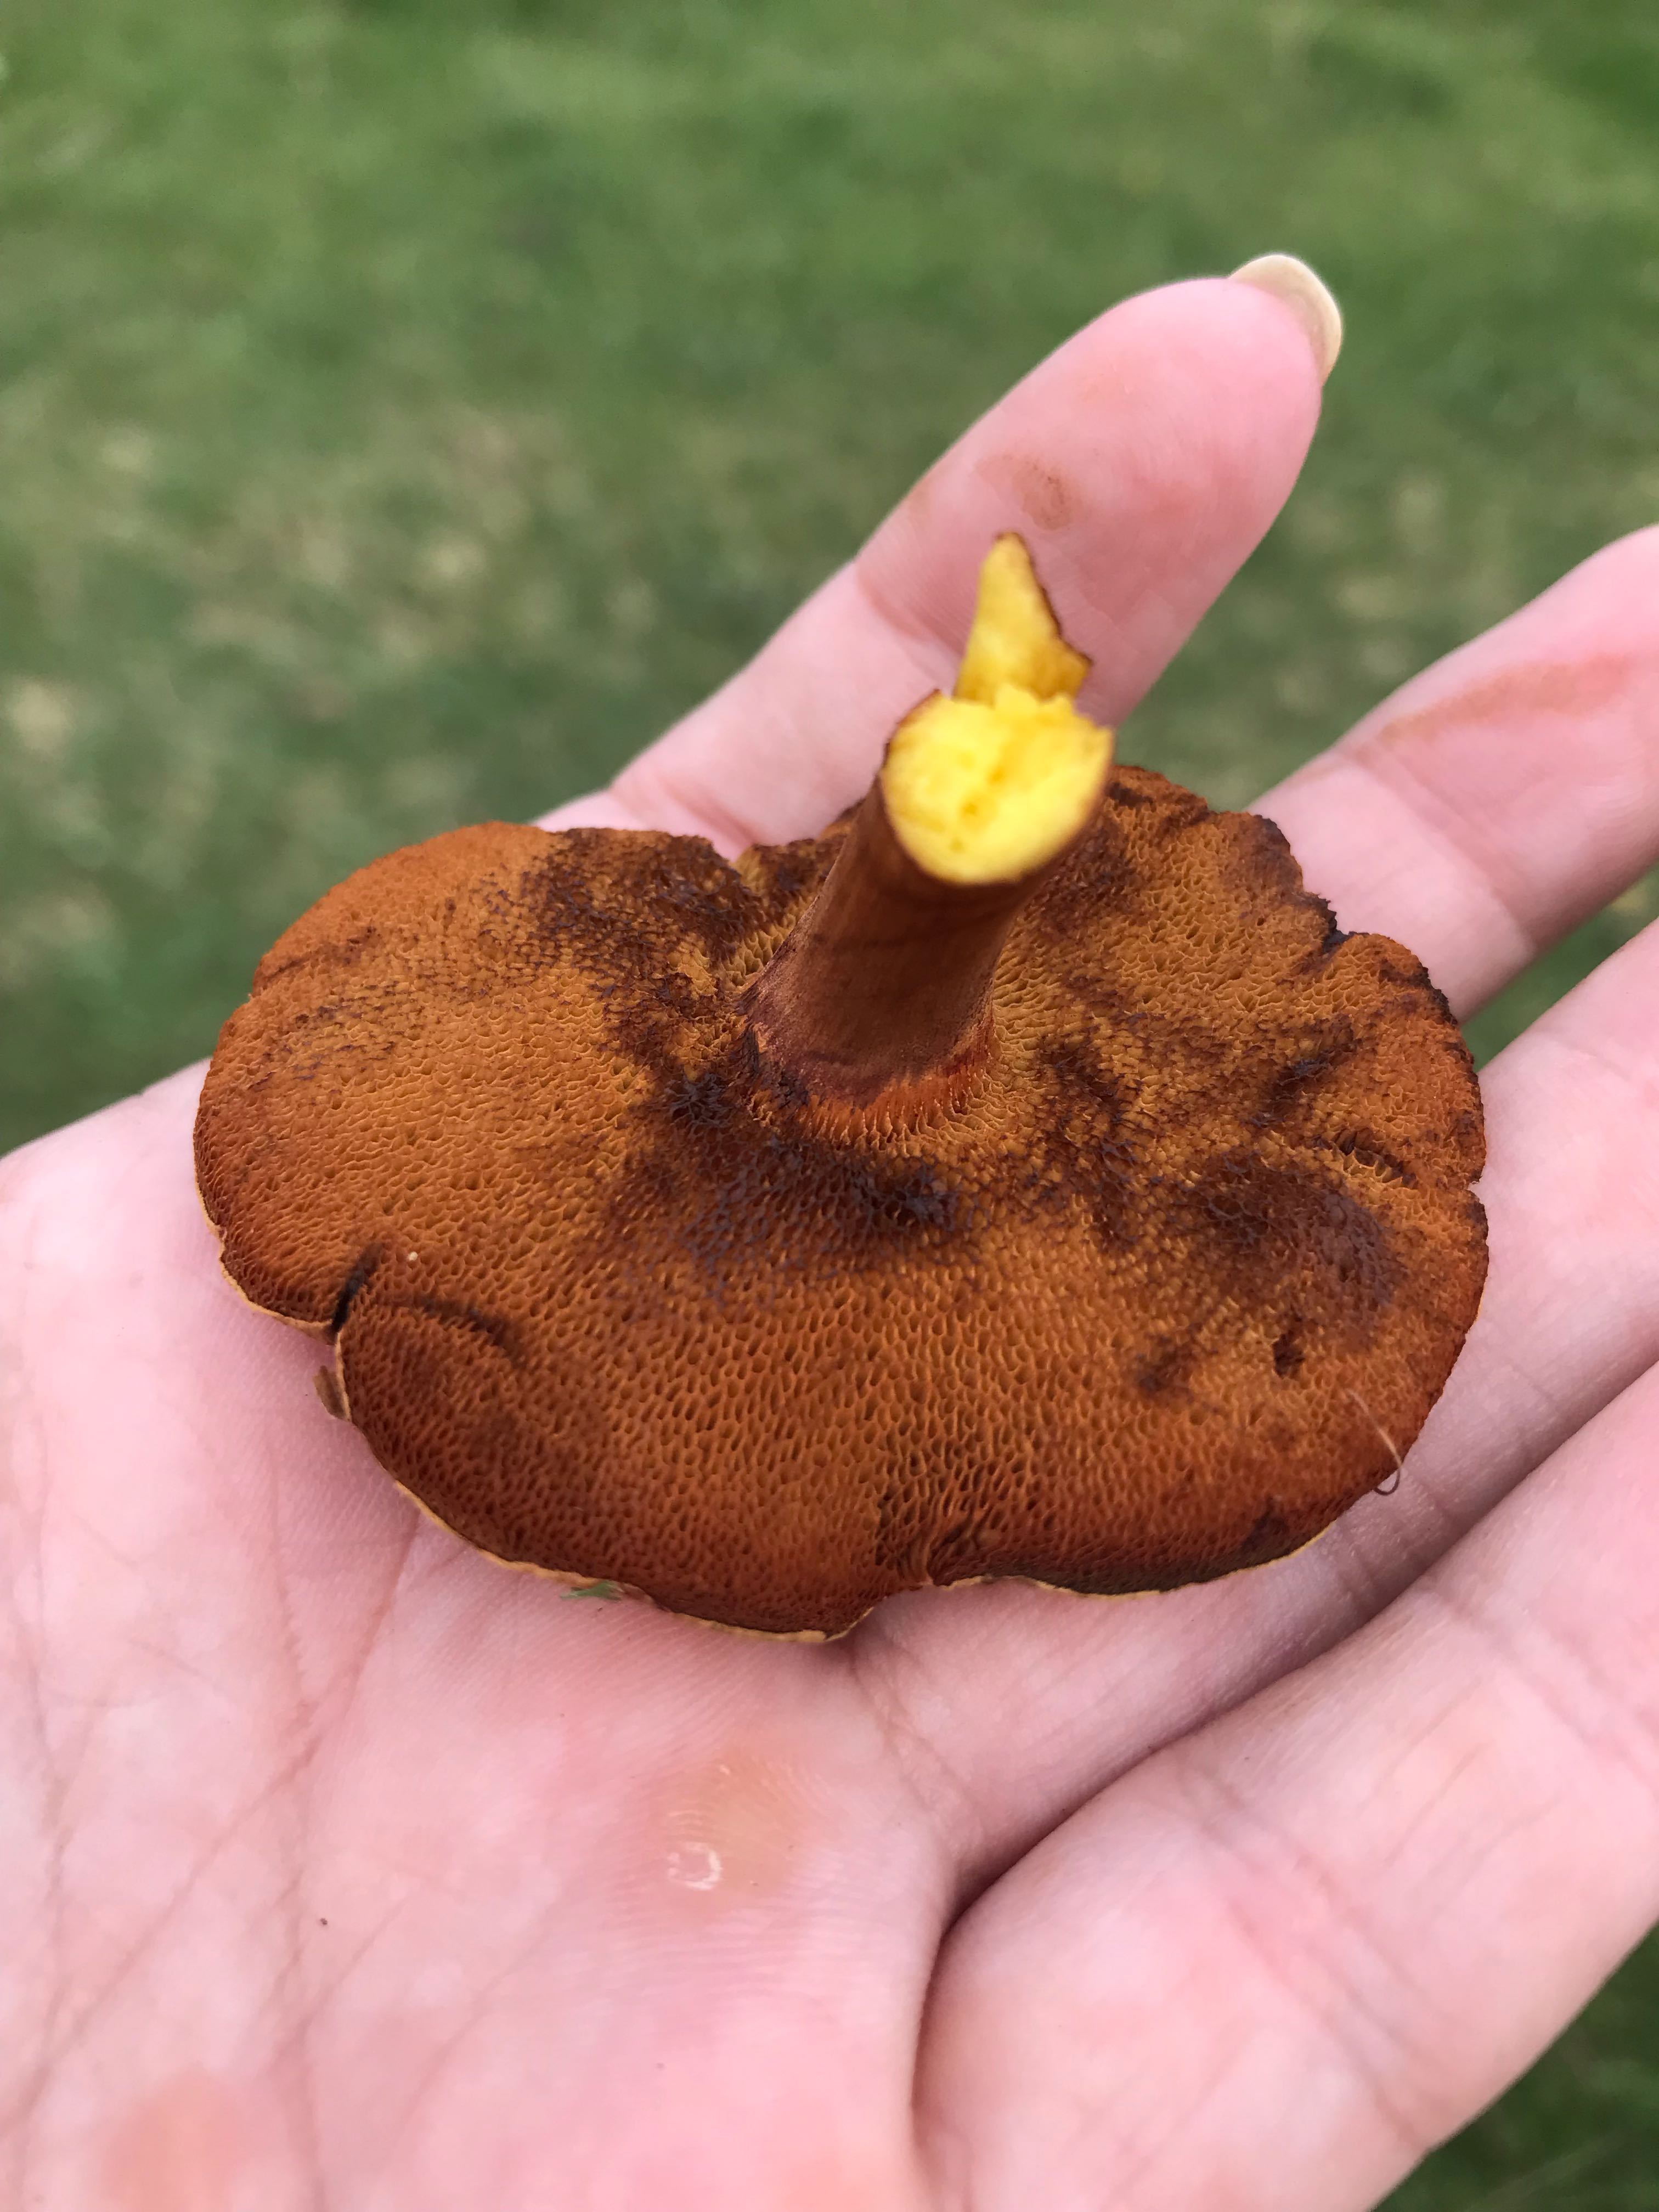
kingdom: Fungi
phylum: Basidiomycota
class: Agaricomycetes
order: Boletales
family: Boletaceae
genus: Chalciporus
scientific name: Chalciporus piperatus
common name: peberrørhat
